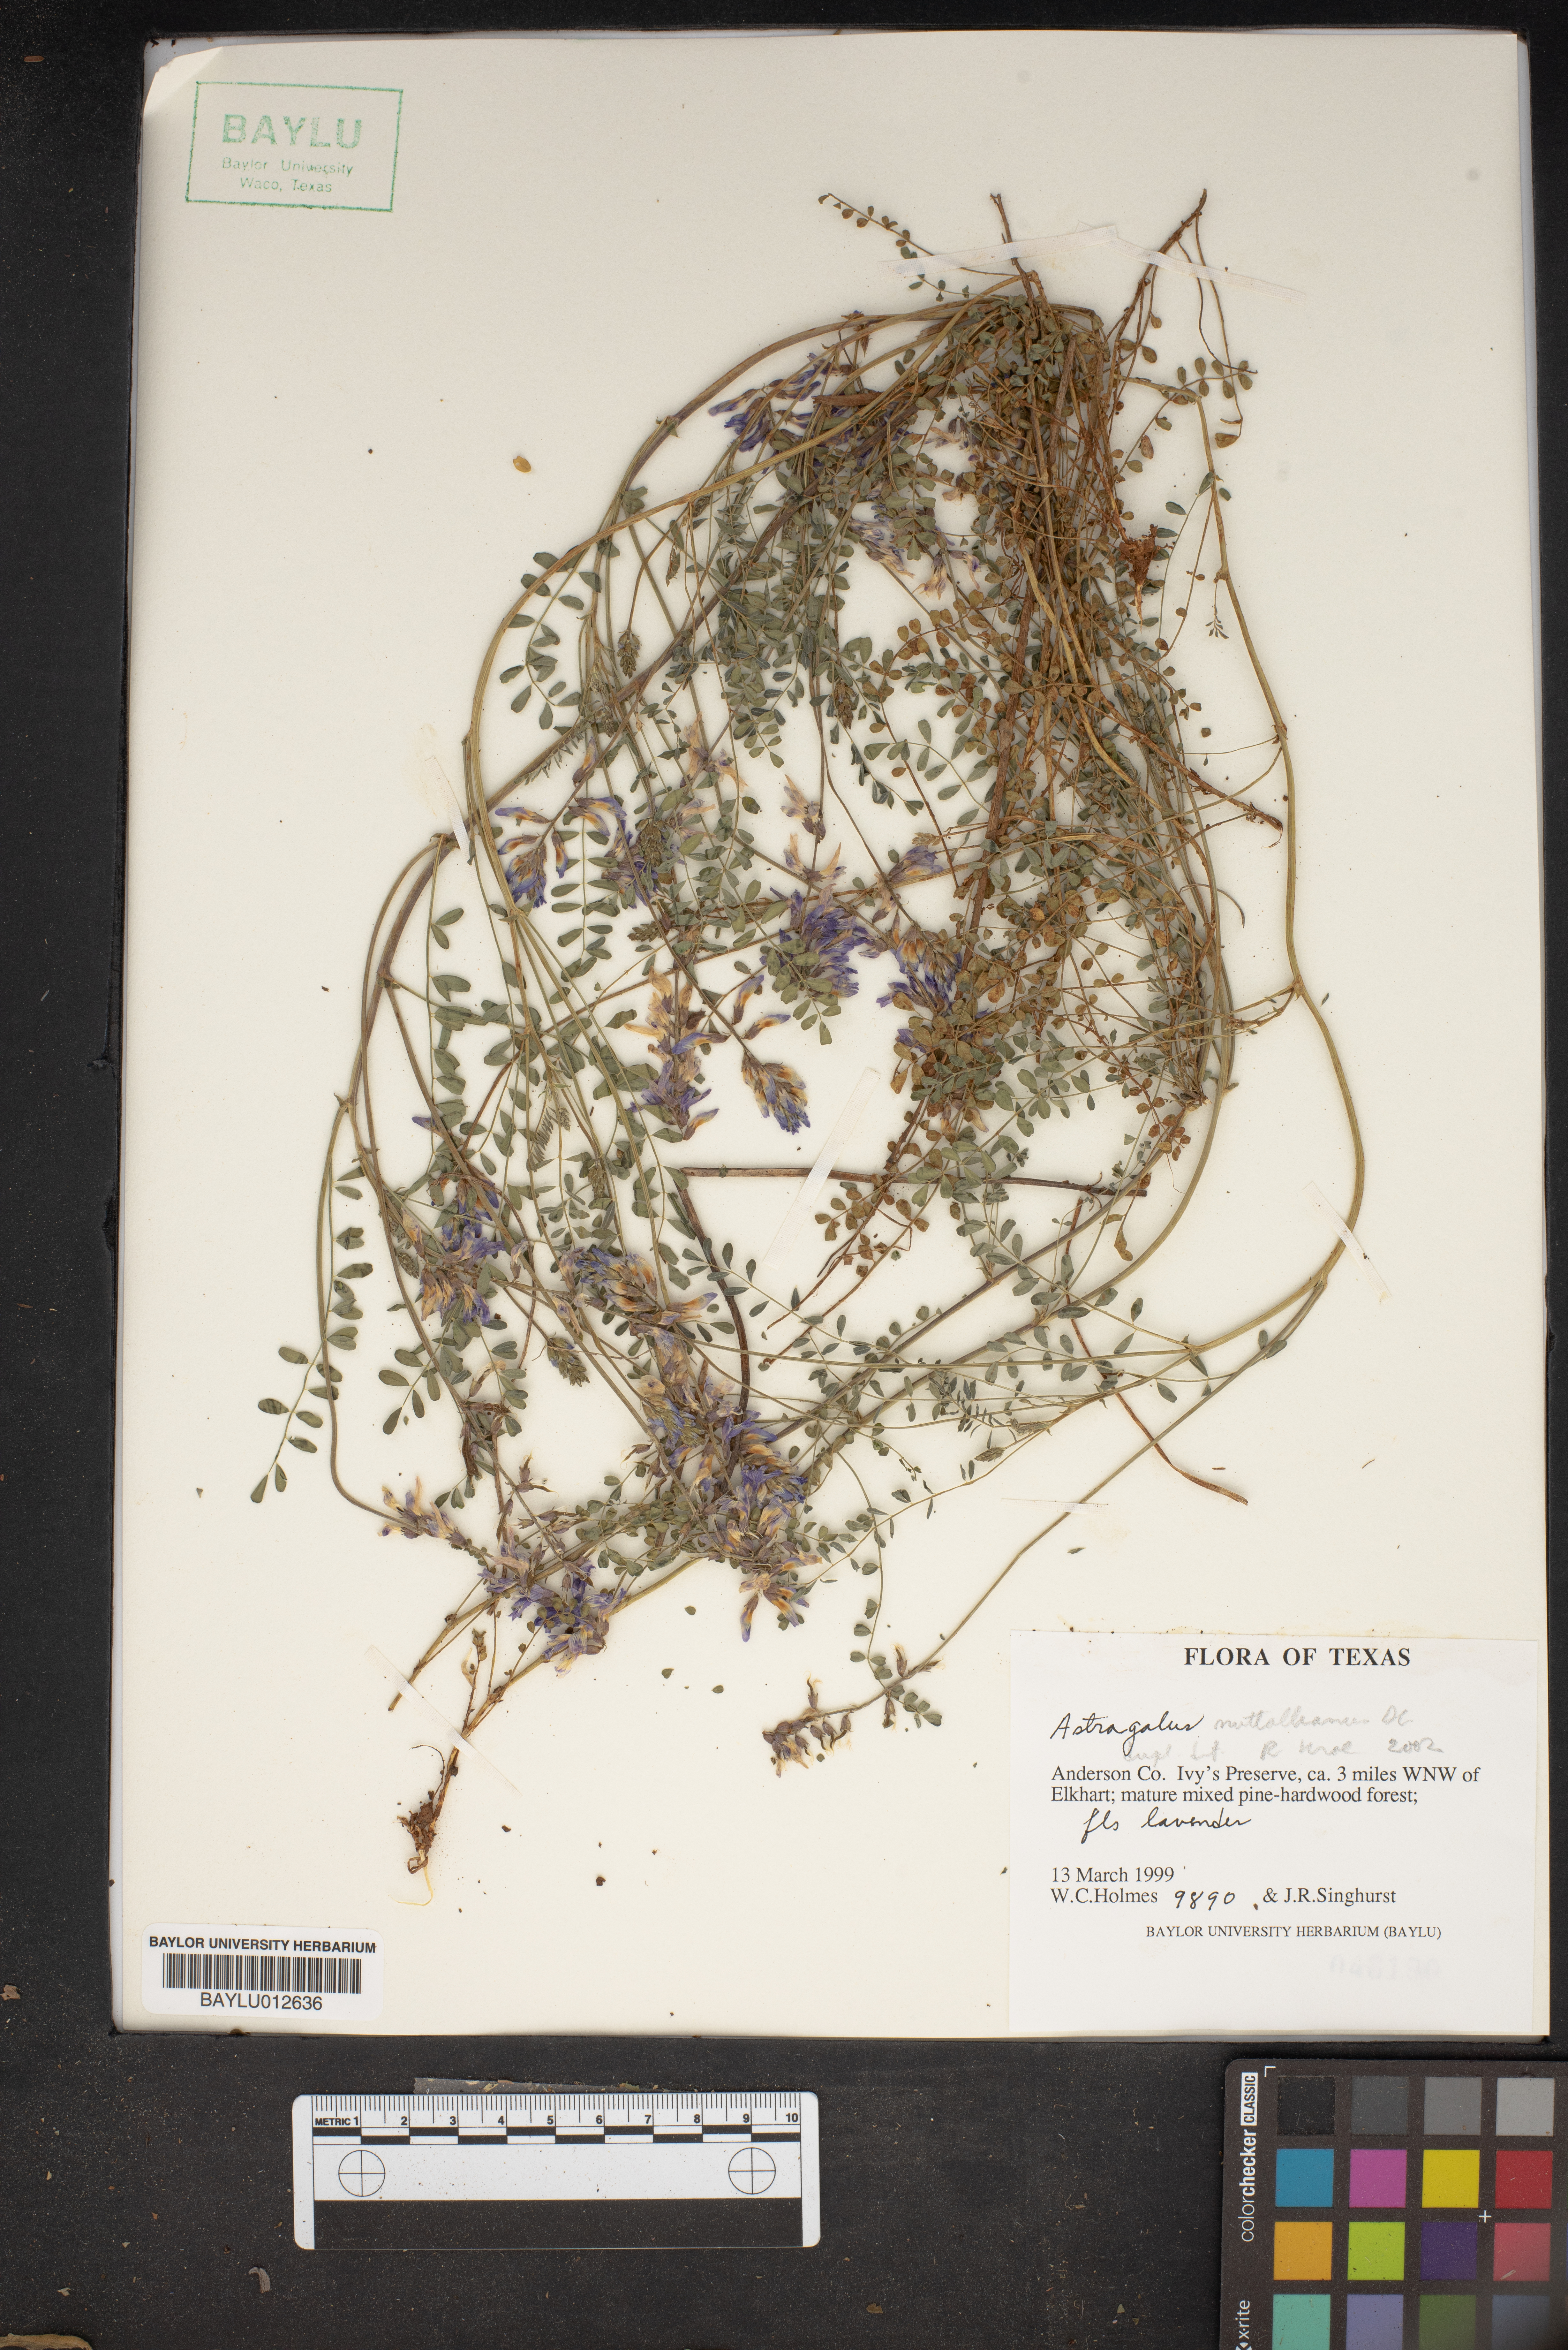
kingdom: Plantae
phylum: Tracheophyta
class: Magnoliopsida
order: Fabales
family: Fabaceae
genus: Astragalus
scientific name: Astragalus nuttallianus
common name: Smallflowered milkvetch
